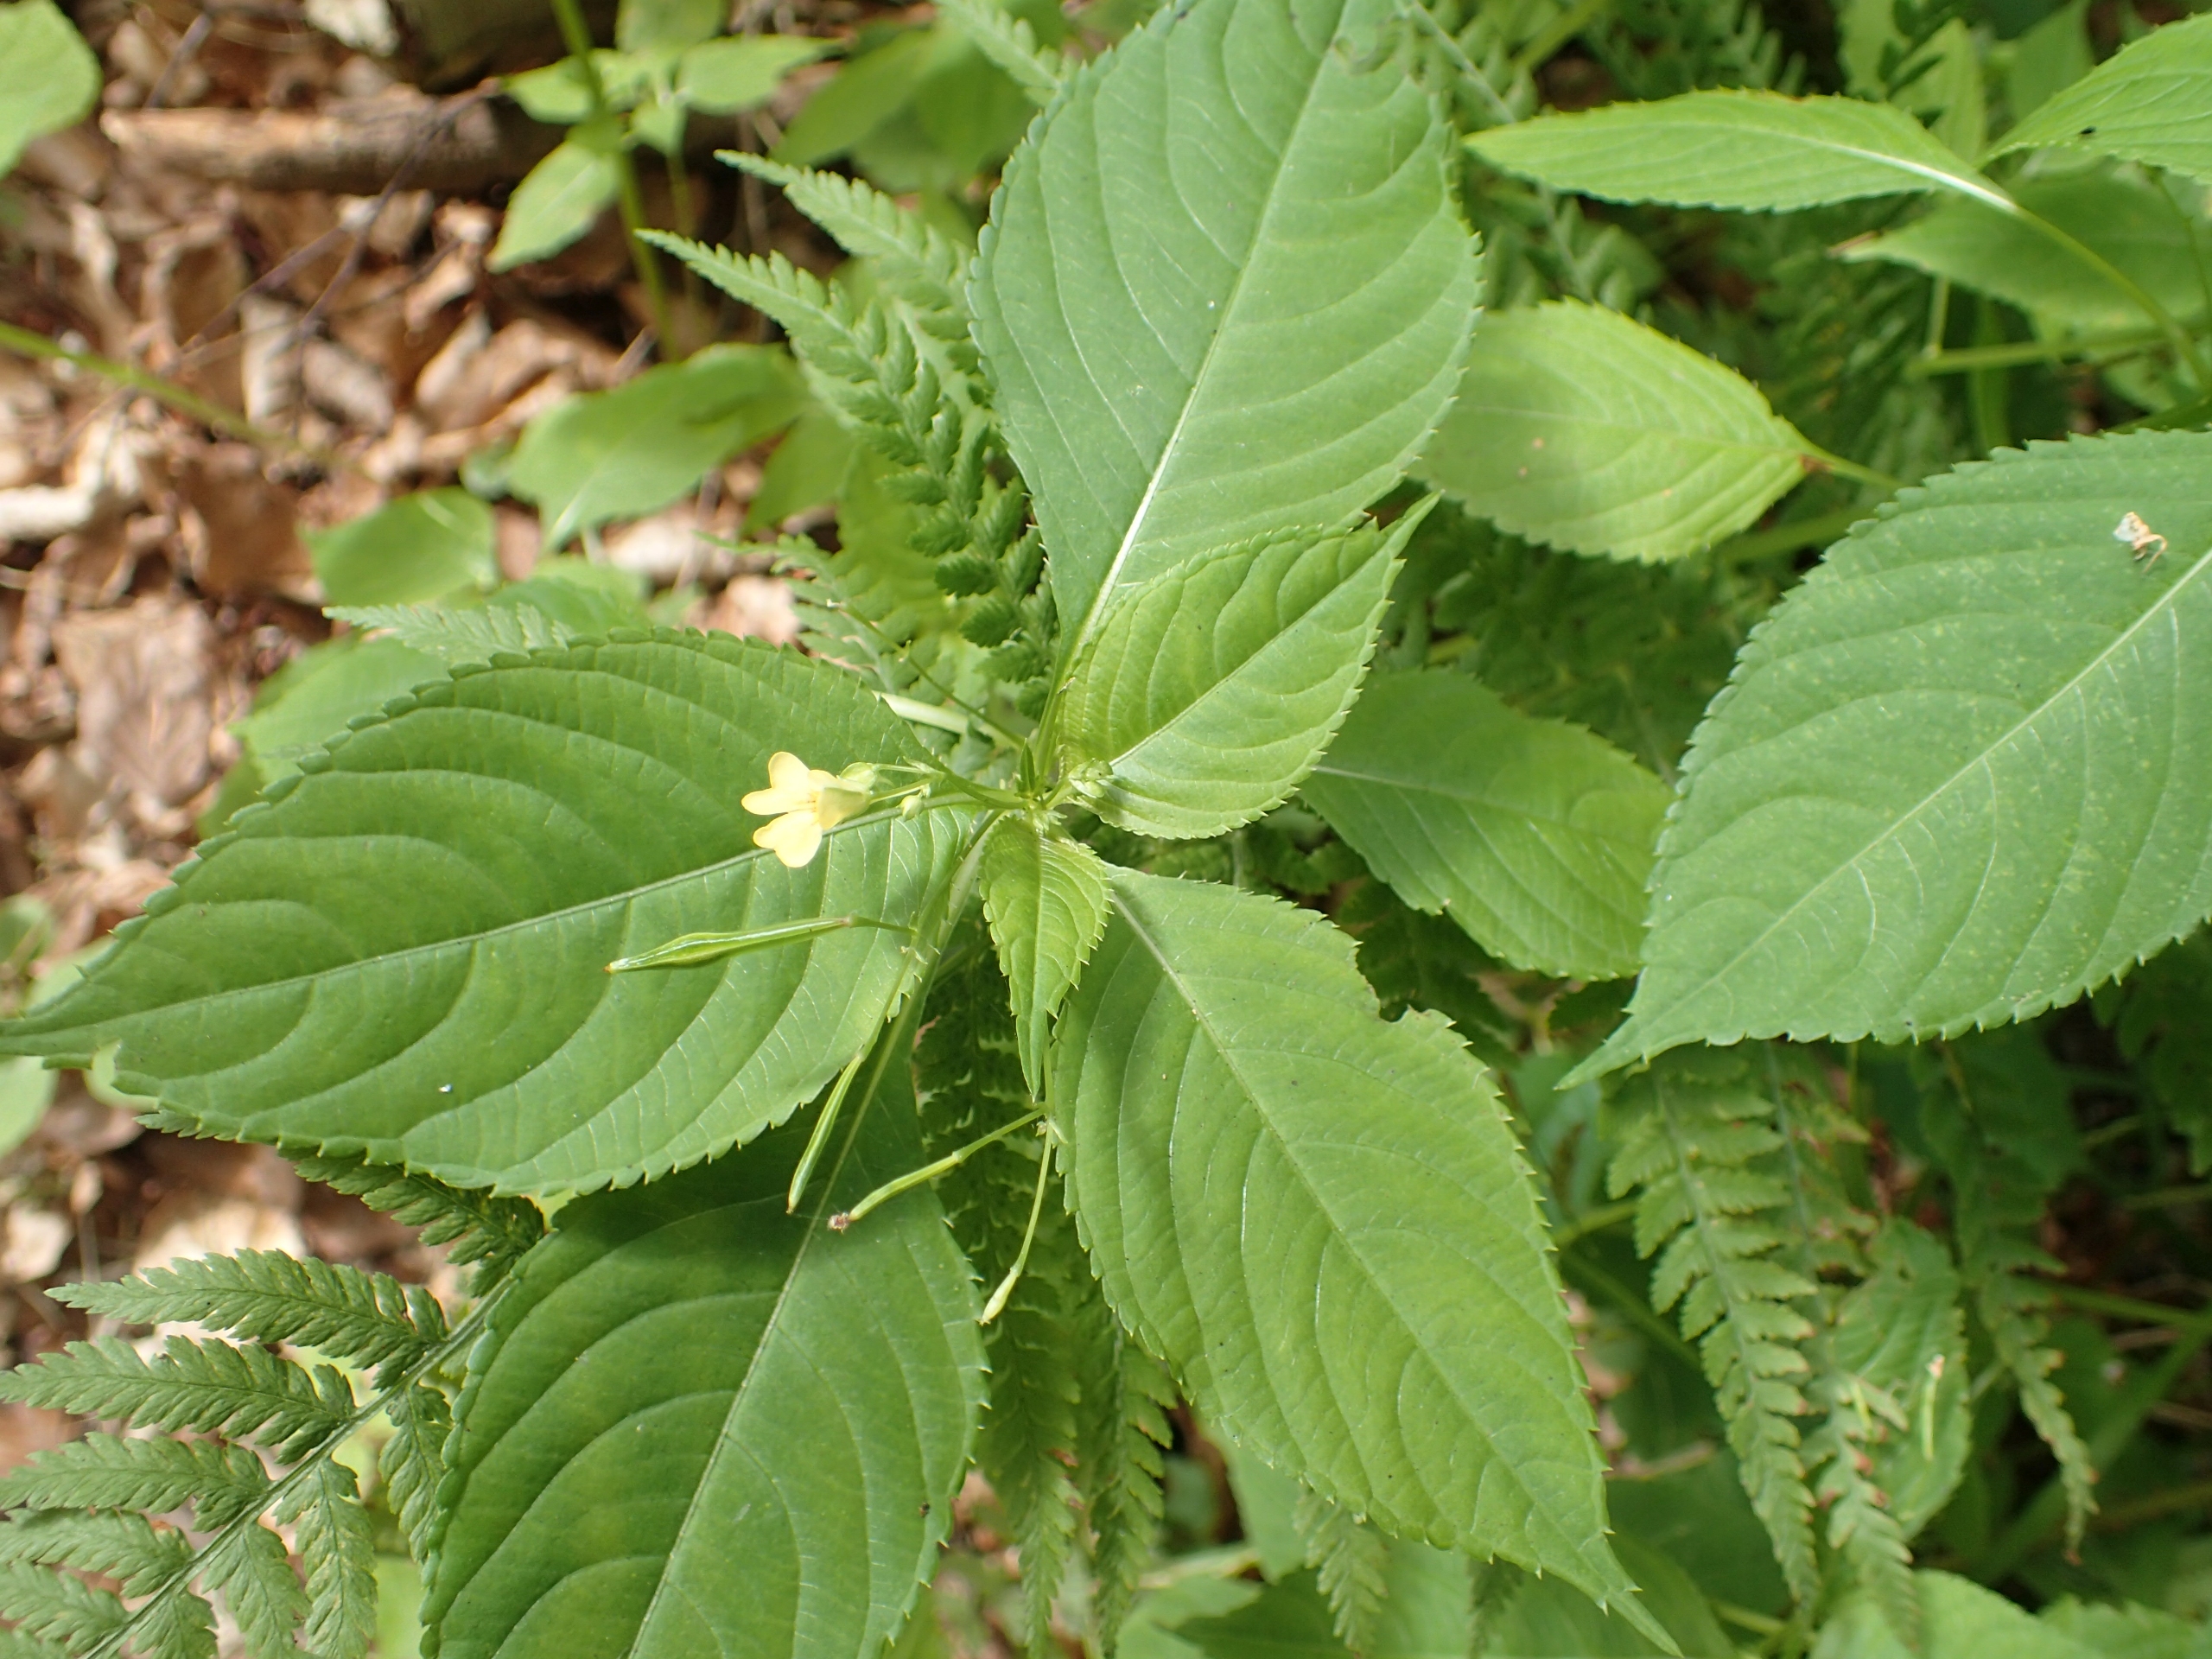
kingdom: Plantae
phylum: Tracheophyta
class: Magnoliopsida
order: Ericales
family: Balsaminaceae
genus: Impatiens
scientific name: Impatiens parviflora
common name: Småblomstret balsamin
